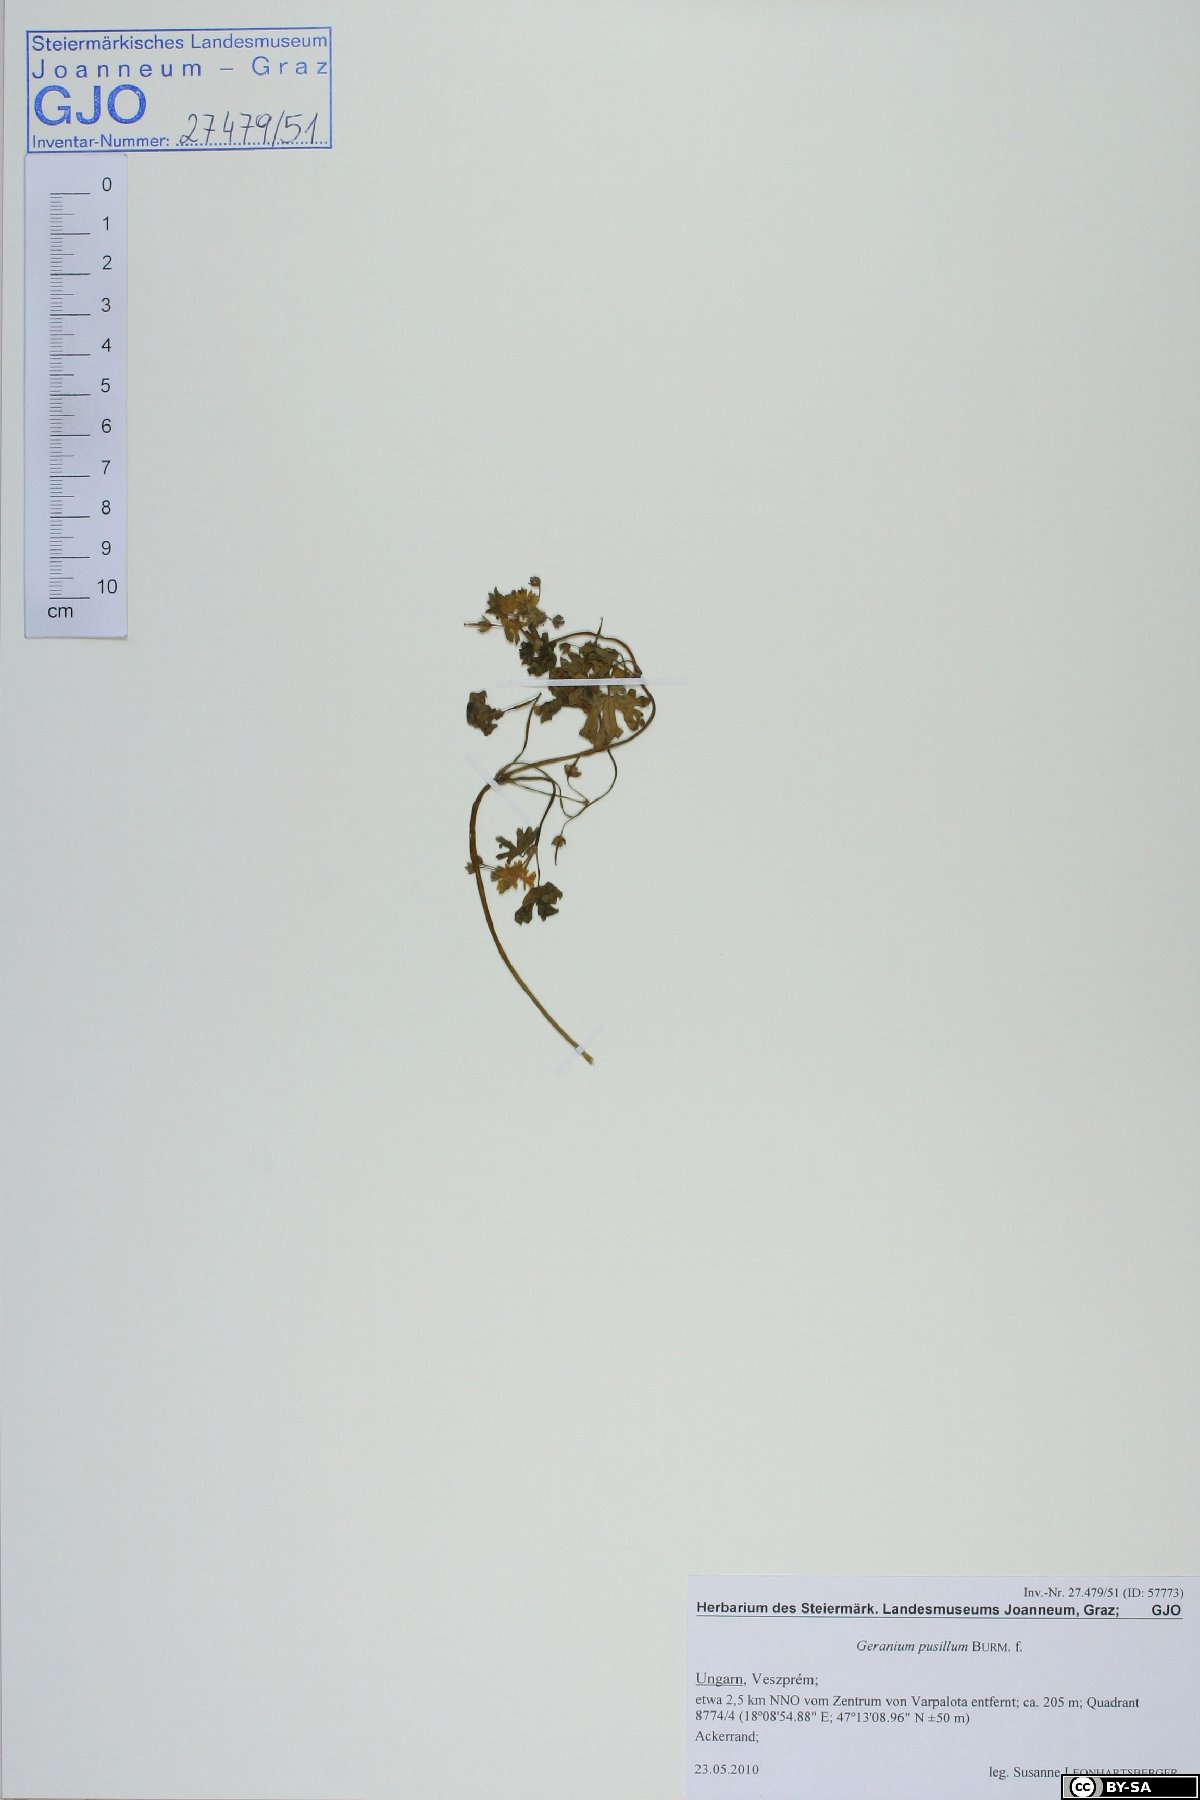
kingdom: Plantae
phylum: Tracheophyta
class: Magnoliopsida
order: Geraniales
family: Geraniaceae
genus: Geranium
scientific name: Geranium pusillum
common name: Small geranium
